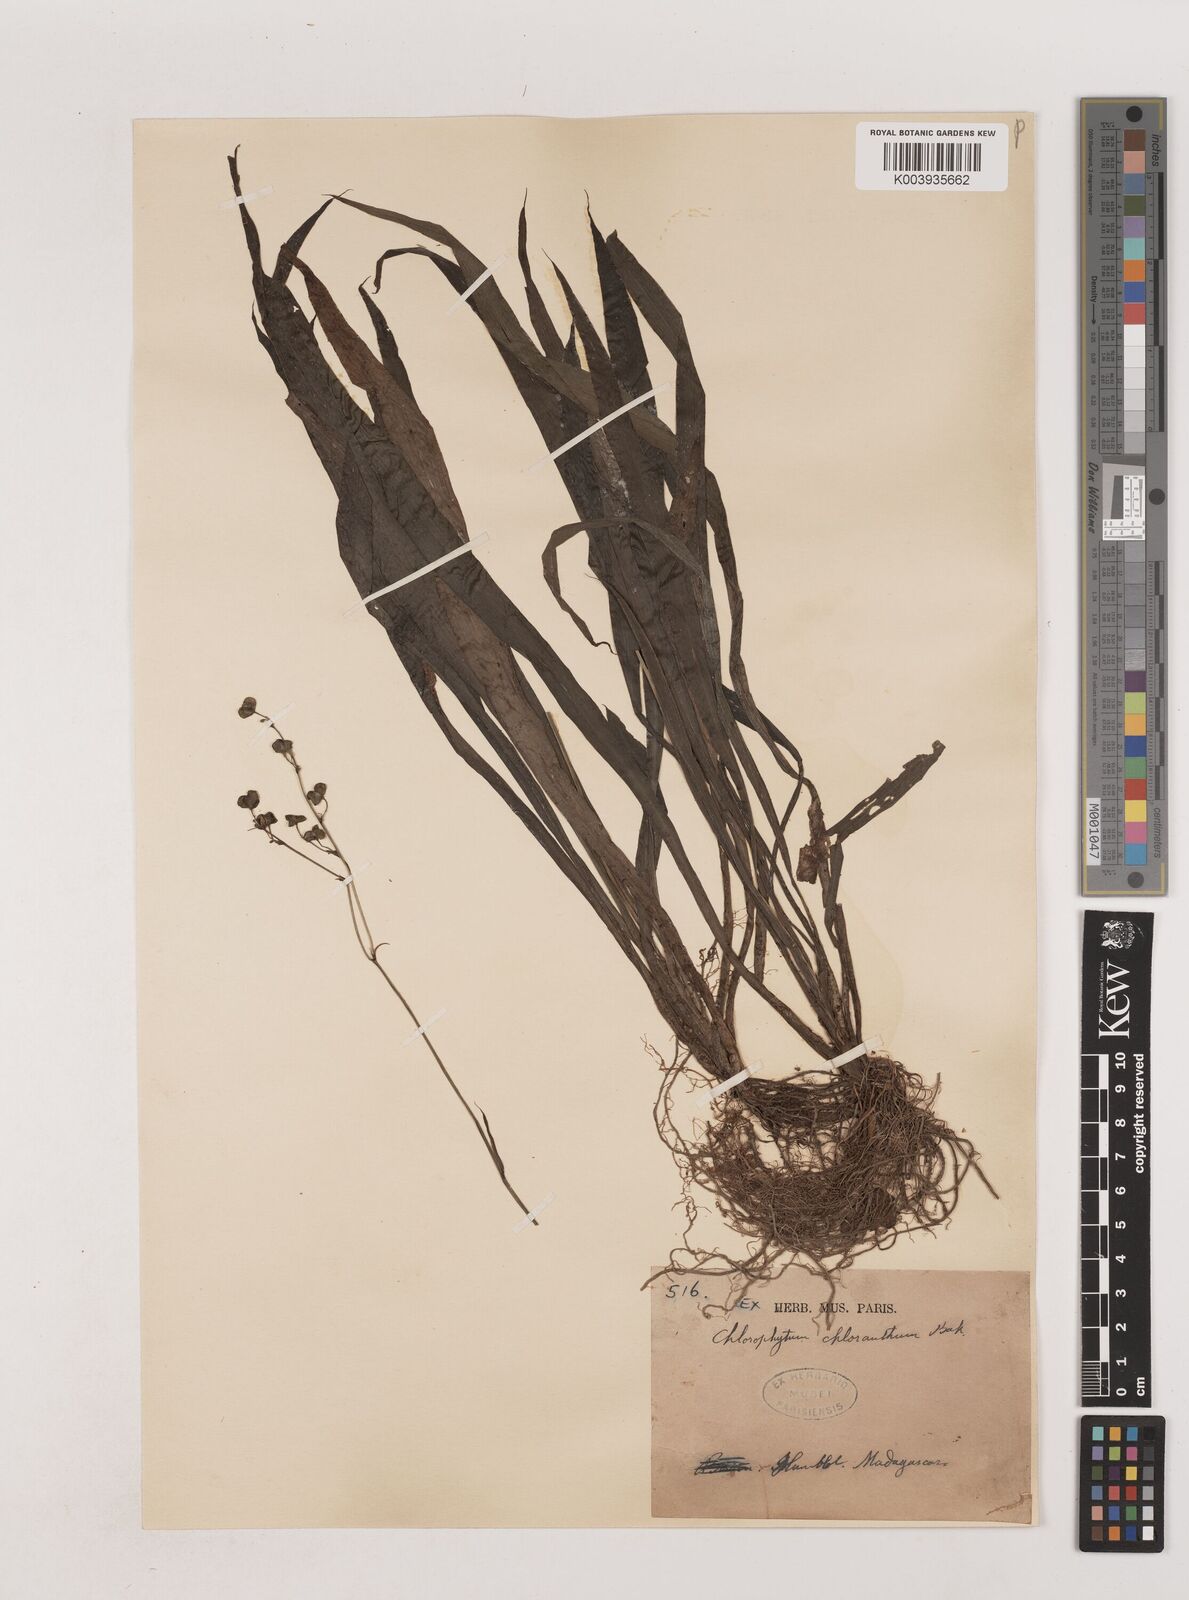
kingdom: Plantae
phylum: Tracheophyta
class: Liliopsida
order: Asparagales
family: Asparagaceae
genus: Chlorophytum
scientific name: Chlorophytum chloranthum
